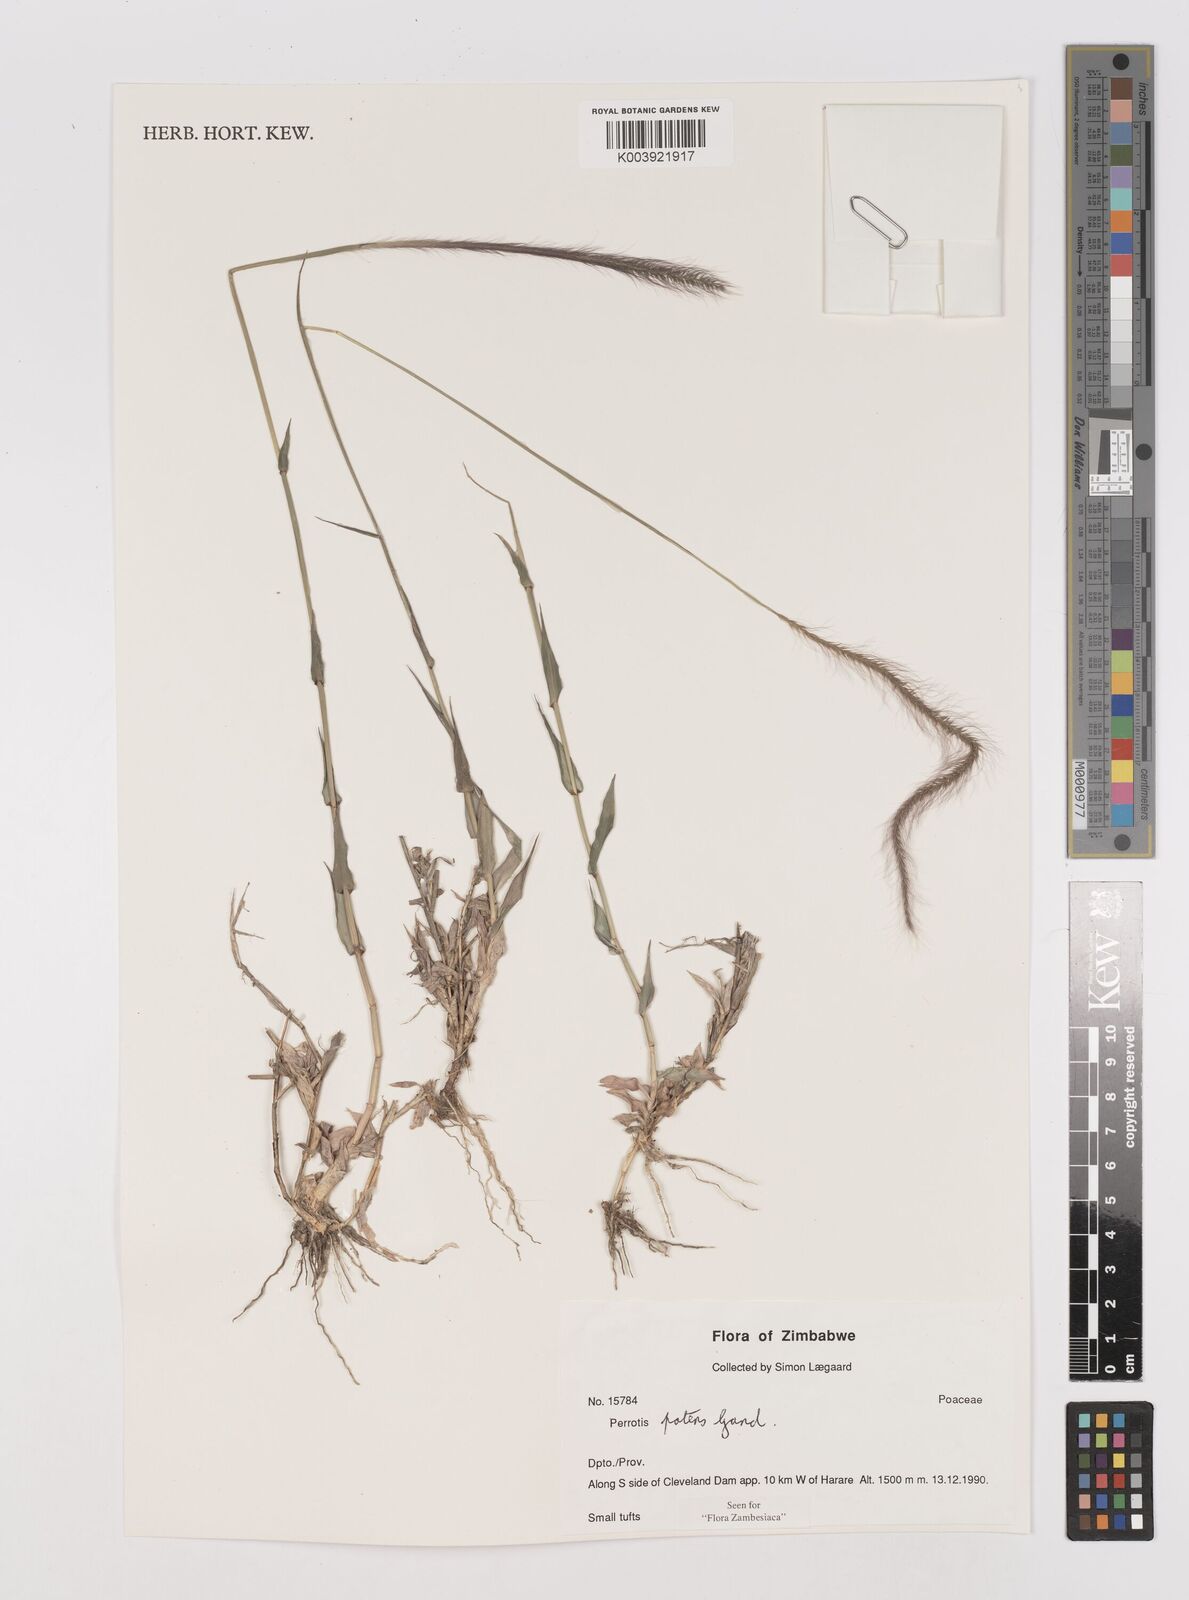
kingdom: Plantae
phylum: Tracheophyta
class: Liliopsida
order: Poales
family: Poaceae
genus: Perotis
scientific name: Perotis patens
